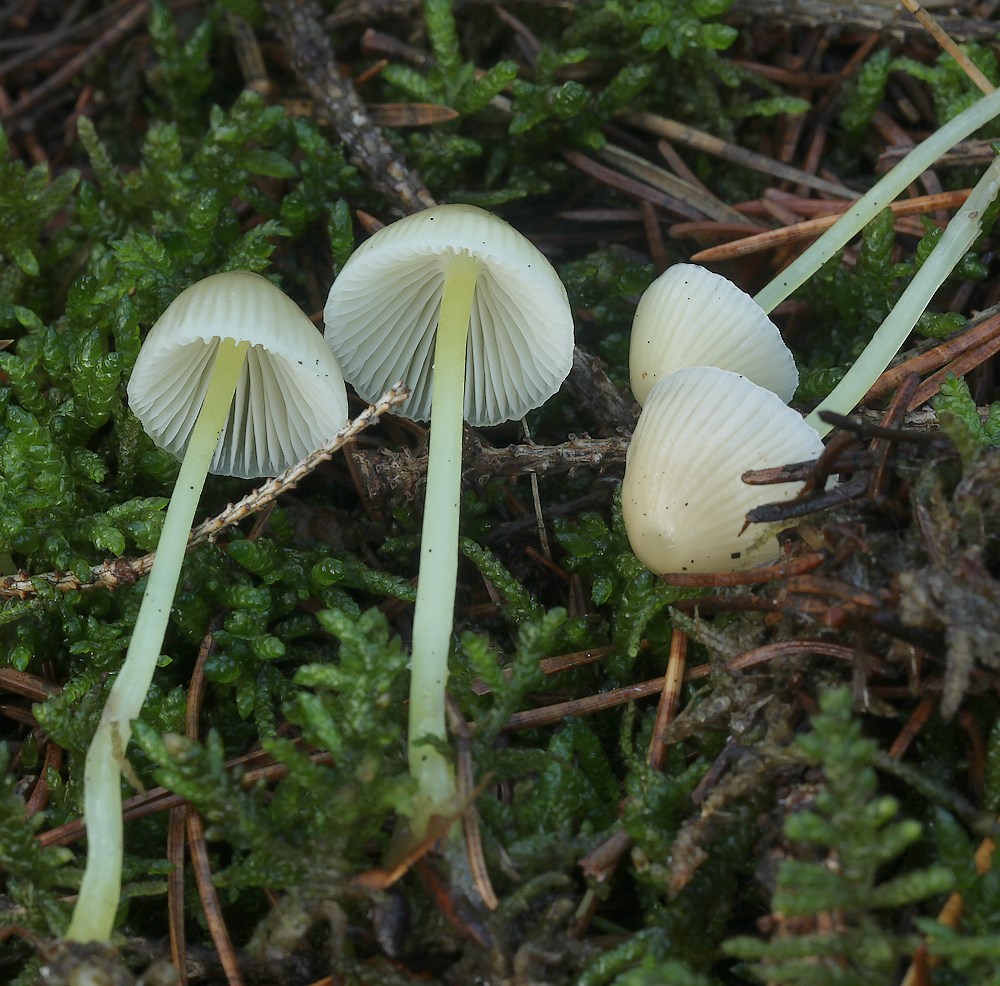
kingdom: Fungi
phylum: Basidiomycota
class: Agaricomycetes
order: Agaricales
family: Mycenaceae
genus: Mycena
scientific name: Mycena epipterygia
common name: gulstokket huesvamp
